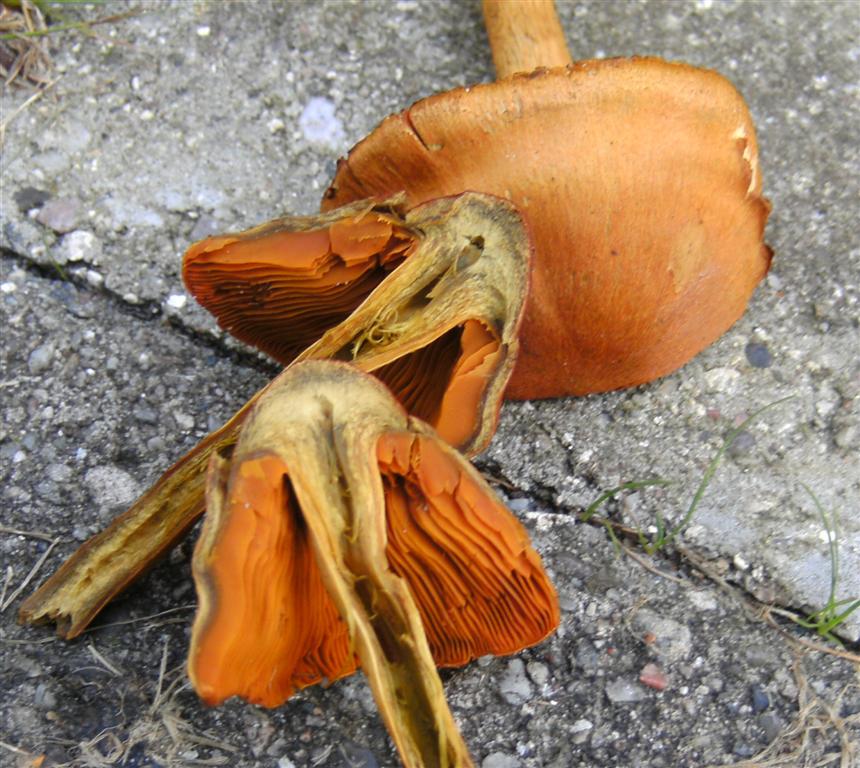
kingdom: Fungi
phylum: Basidiomycota
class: Agaricomycetes
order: Agaricales
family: Cortinariaceae
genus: Cortinarius
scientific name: Cortinarius malicorius
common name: grønkødet slørhat
